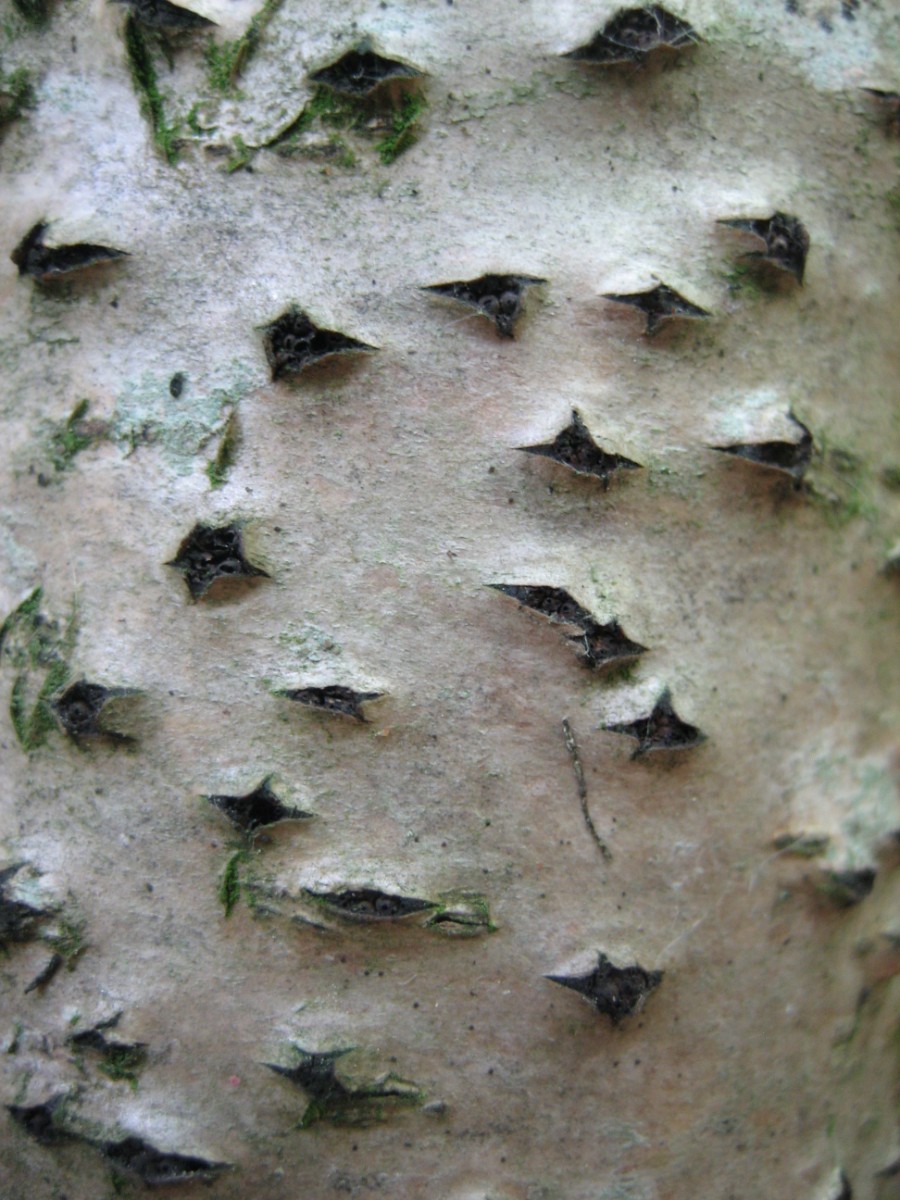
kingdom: Fungi
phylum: Ascomycota
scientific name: Ascomycota
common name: sæksvampe
